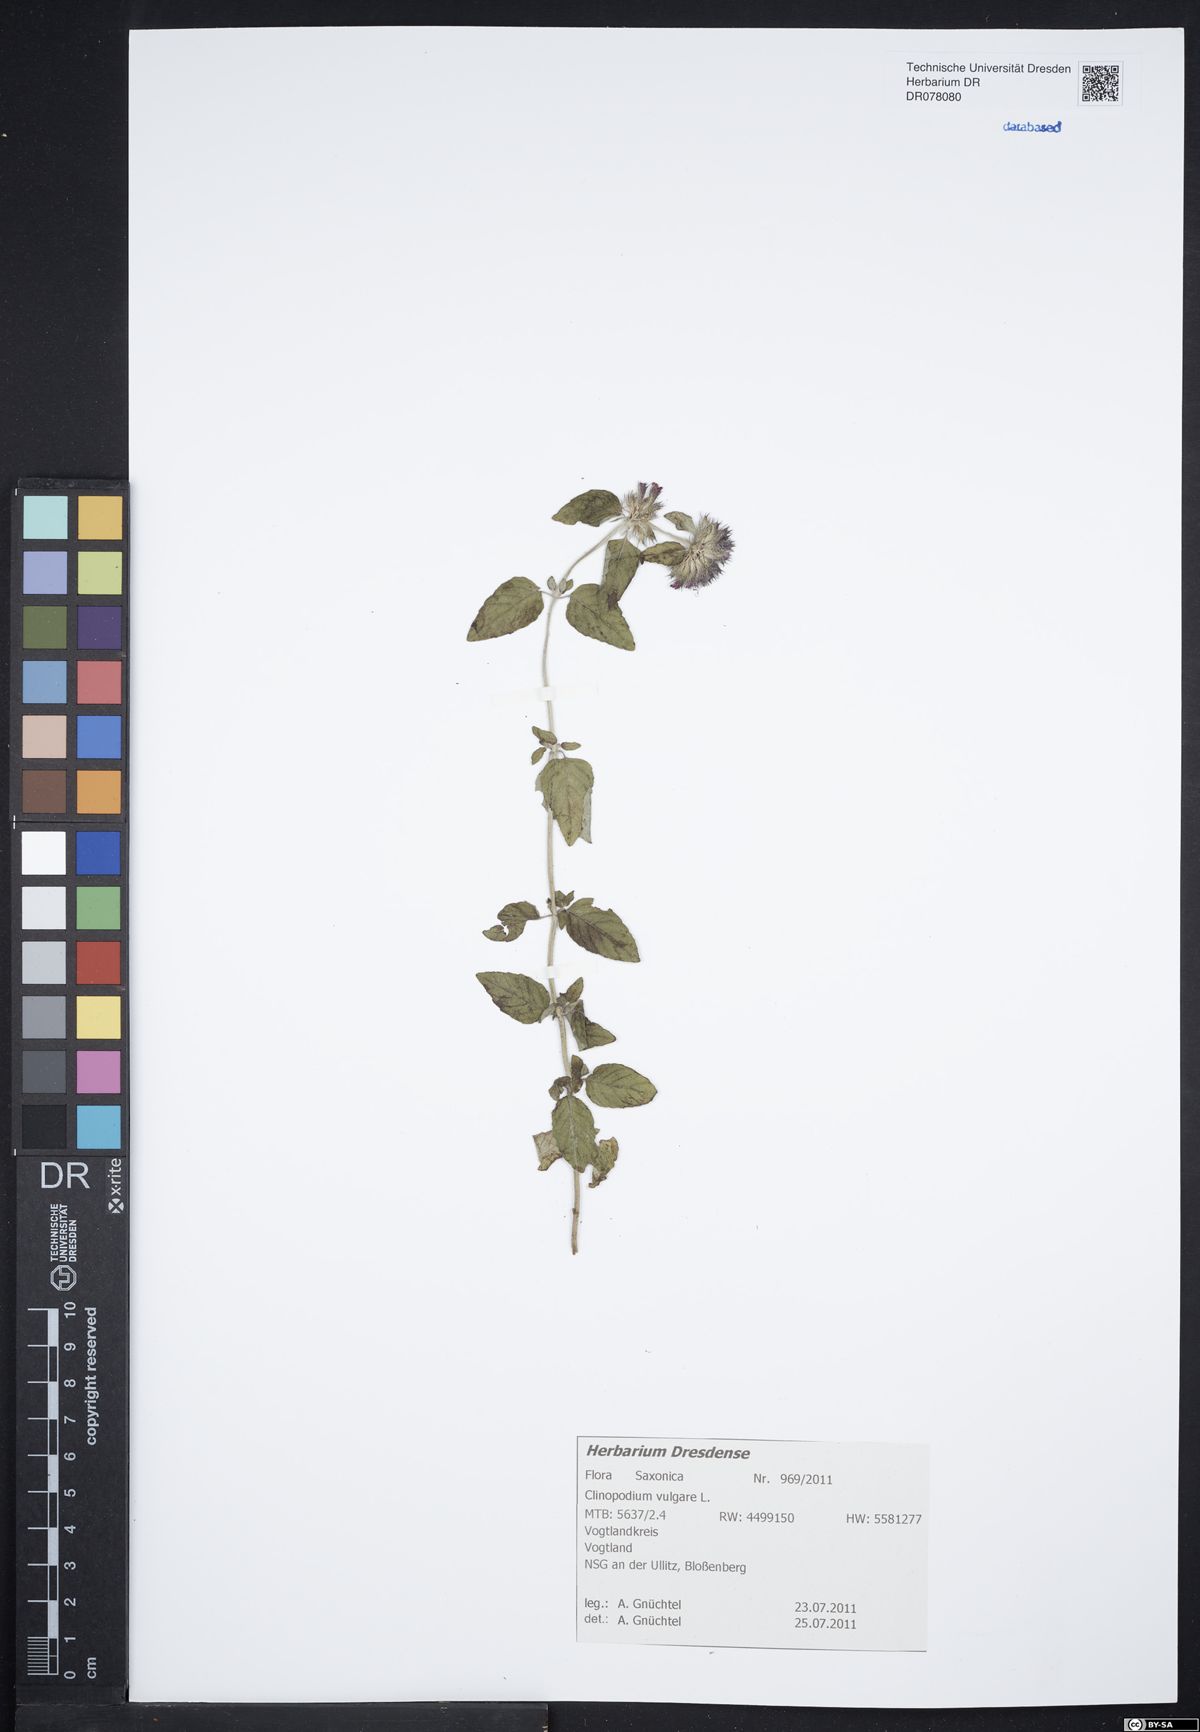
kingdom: Plantae
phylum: Tracheophyta
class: Magnoliopsida
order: Lamiales
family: Lamiaceae
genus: Clinopodium
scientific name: Clinopodium vulgare
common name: Wild basil
